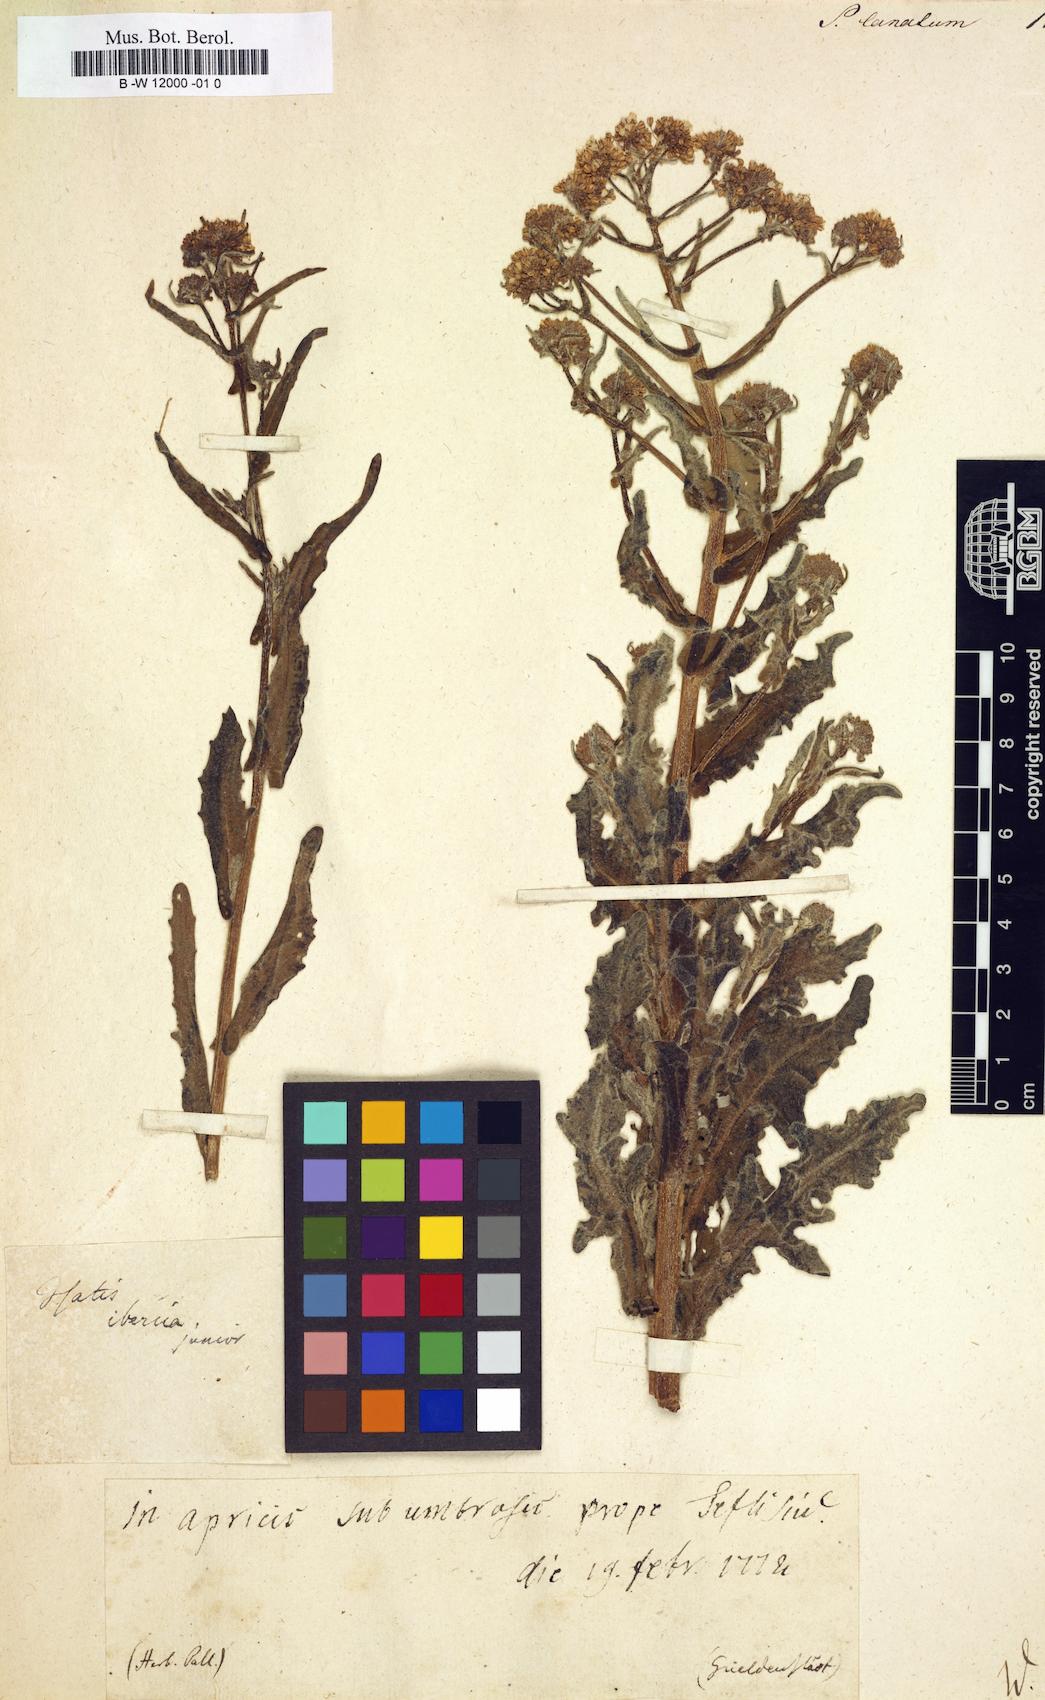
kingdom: Plantae
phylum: Tracheophyta
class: Magnoliopsida
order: Brassicales
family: Brassicaceae
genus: Neuontobotrys
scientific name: Neuontobotrys lanata
